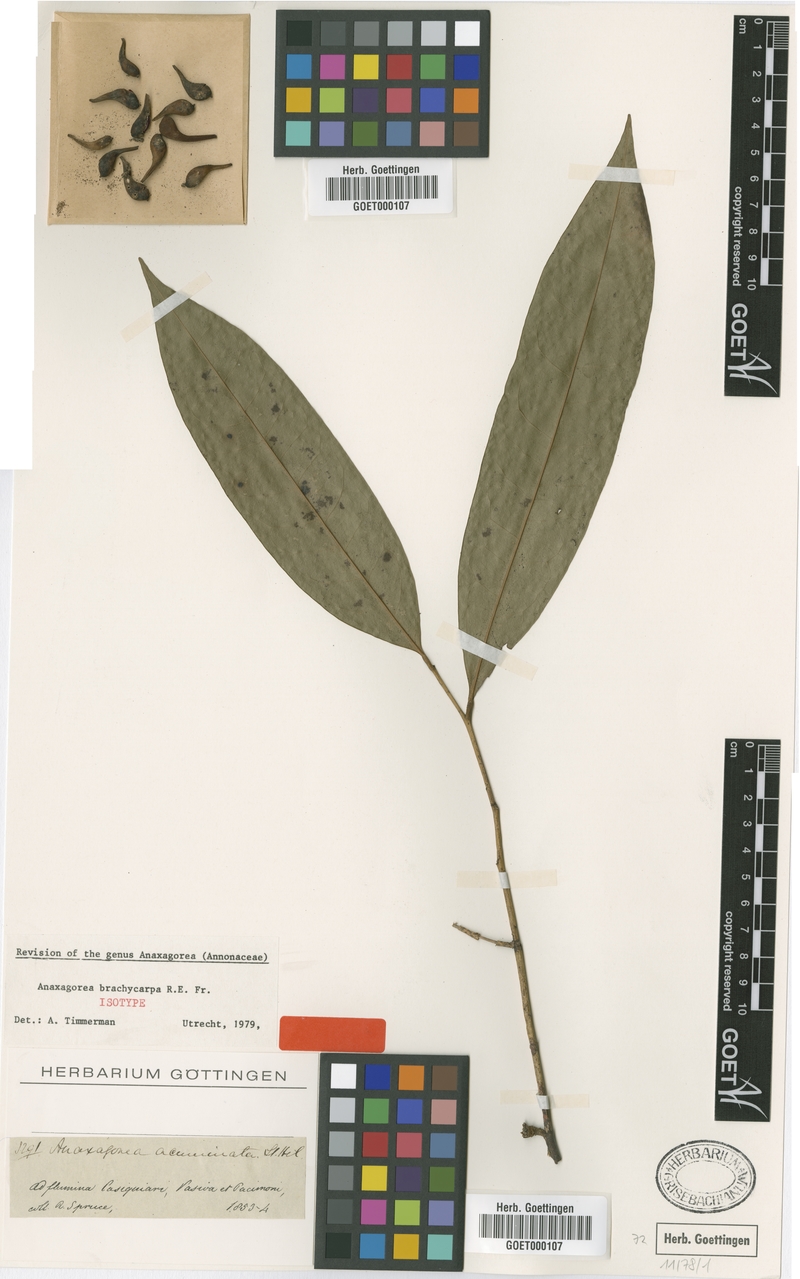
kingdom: Plantae
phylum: Tracheophyta
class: Magnoliopsida
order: Magnoliales
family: Annonaceae
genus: Anaxagorea
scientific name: Anaxagorea brachycarpa
